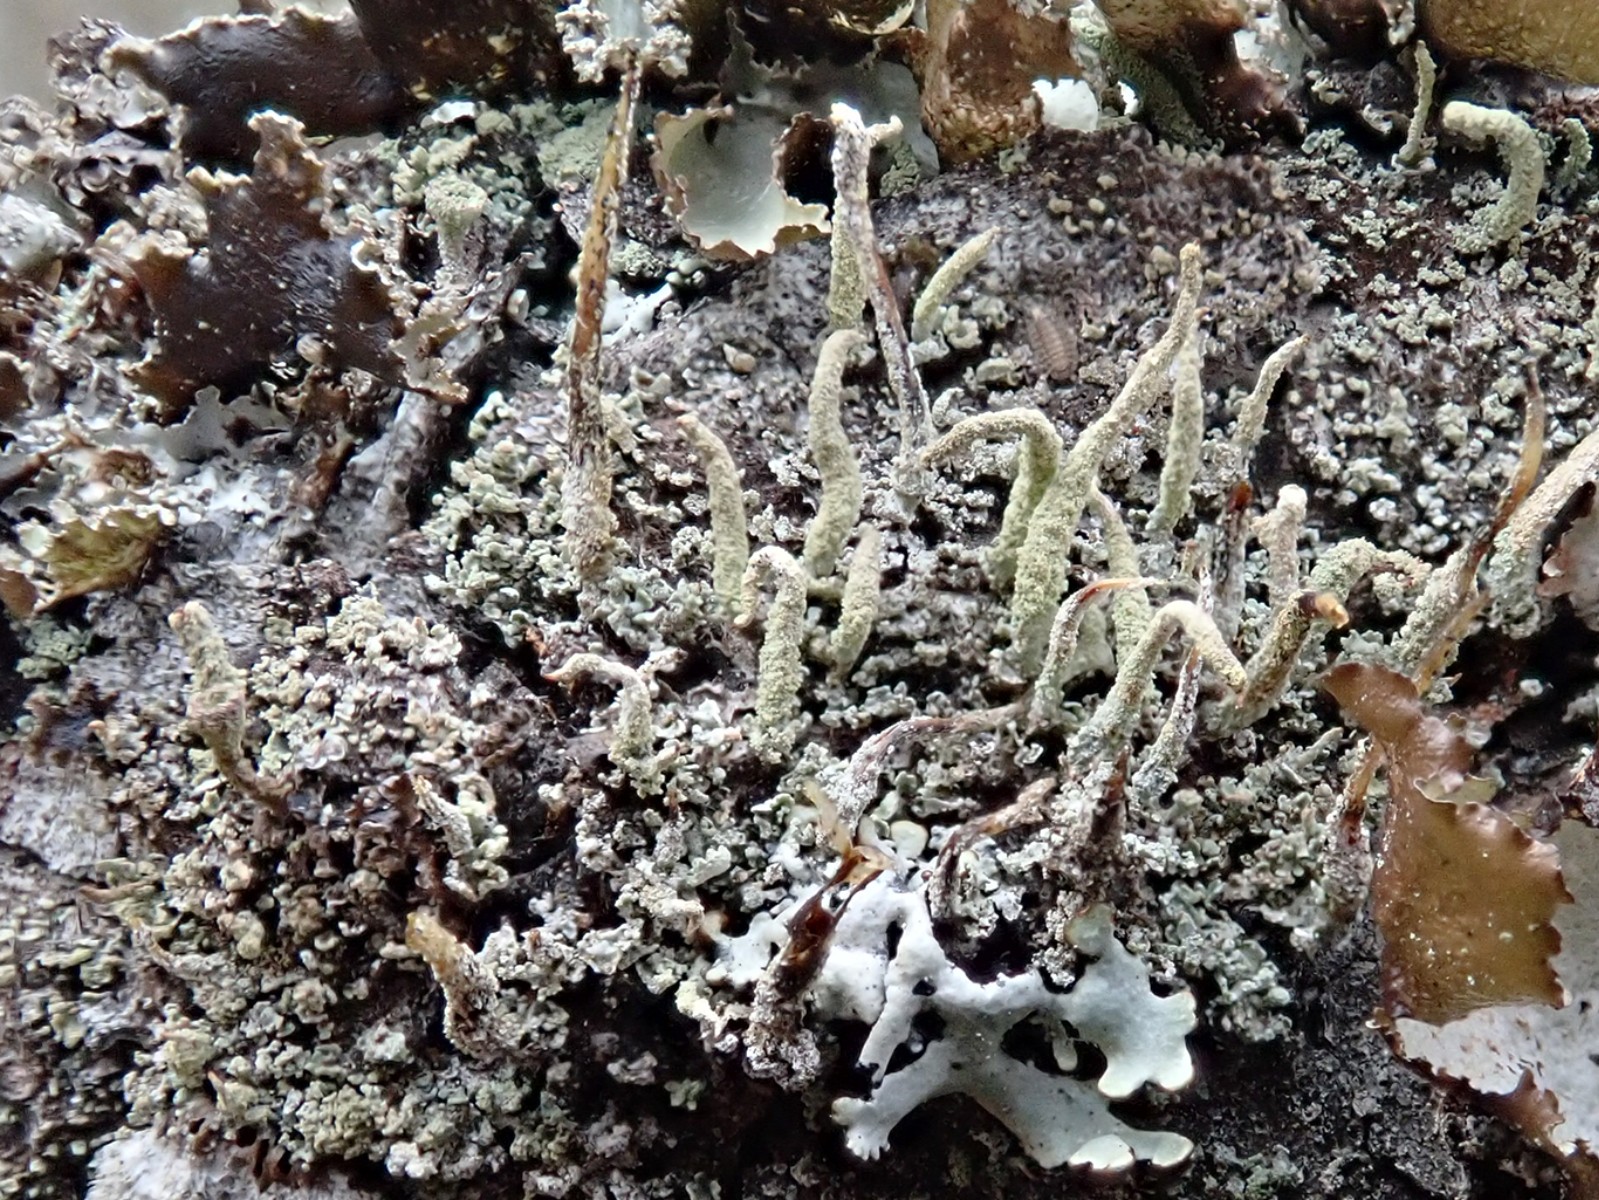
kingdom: Fungi
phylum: Ascomycota
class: Lecanoromycetes
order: Lecanorales
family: Cladoniaceae
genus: Cladonia
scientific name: Cladonia coniocraea
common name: træfods-bægerlav
